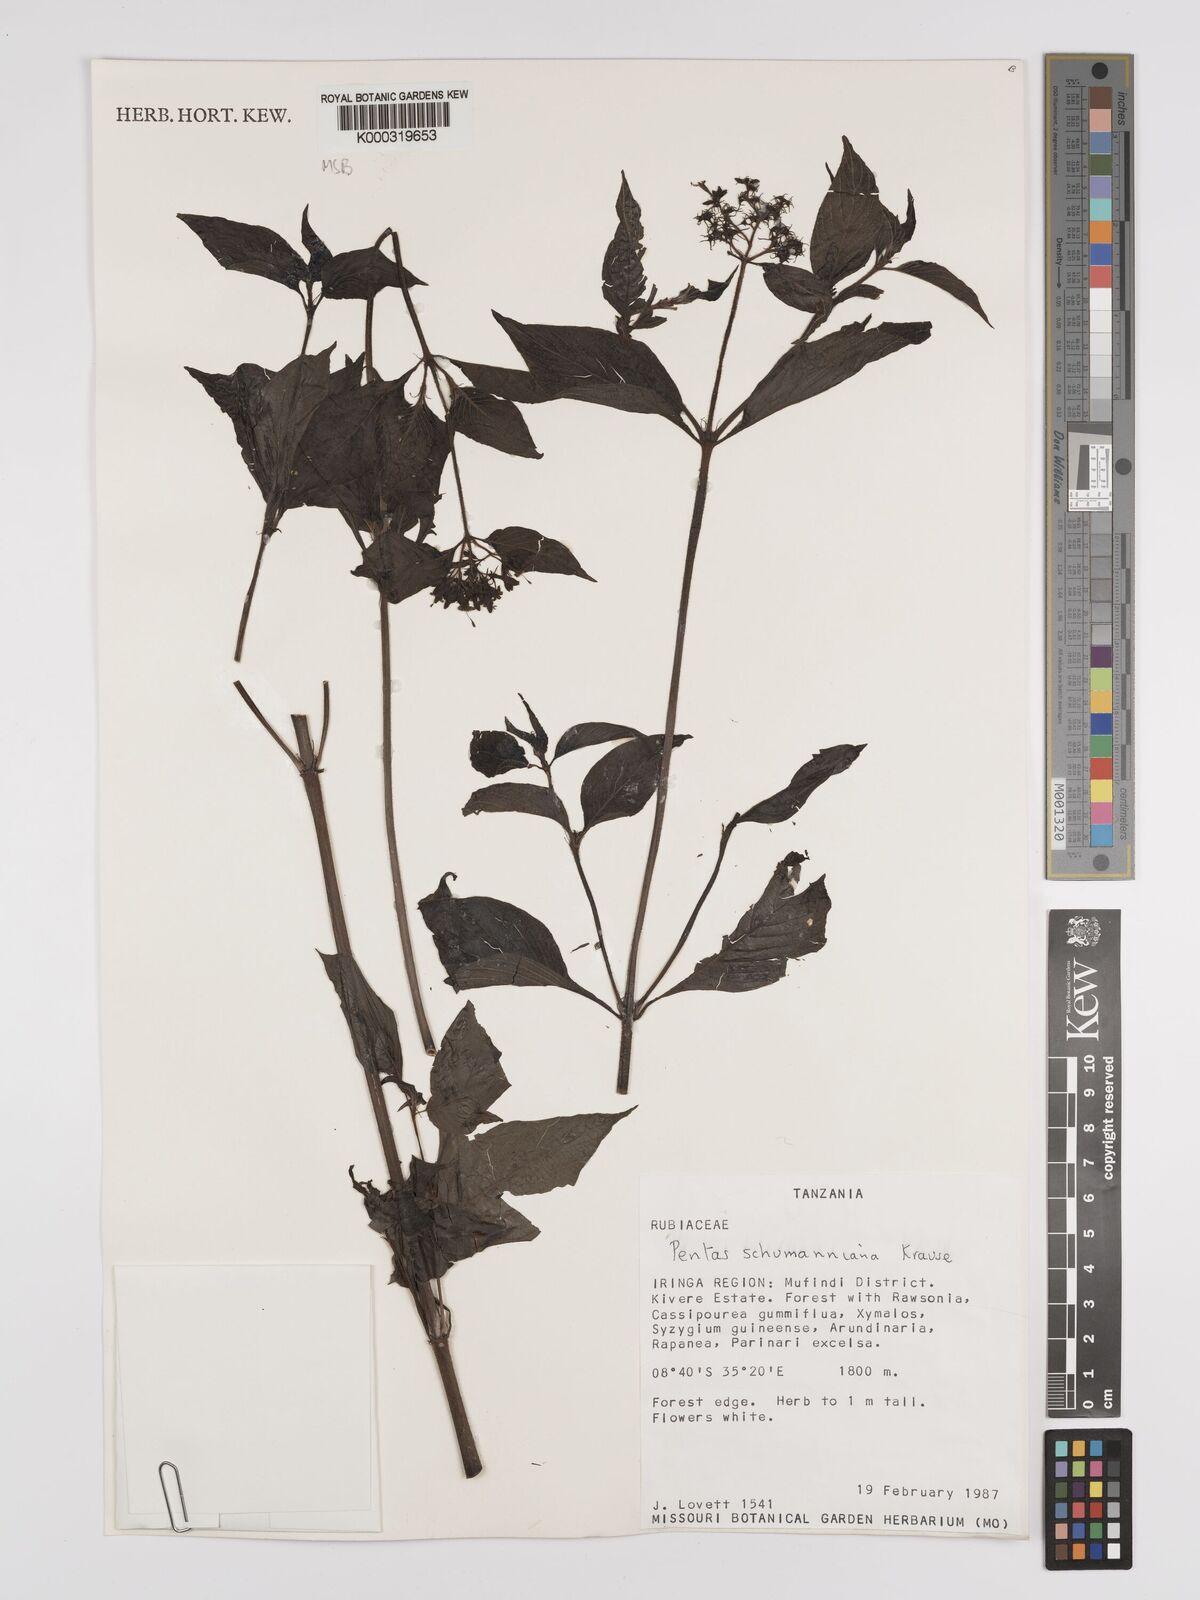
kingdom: Plantae
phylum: Tracheophyta
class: Magnoliopsida
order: Gentianales
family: Rubiaceae
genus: Phyllopentas
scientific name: Phyllopentas schumanniana
